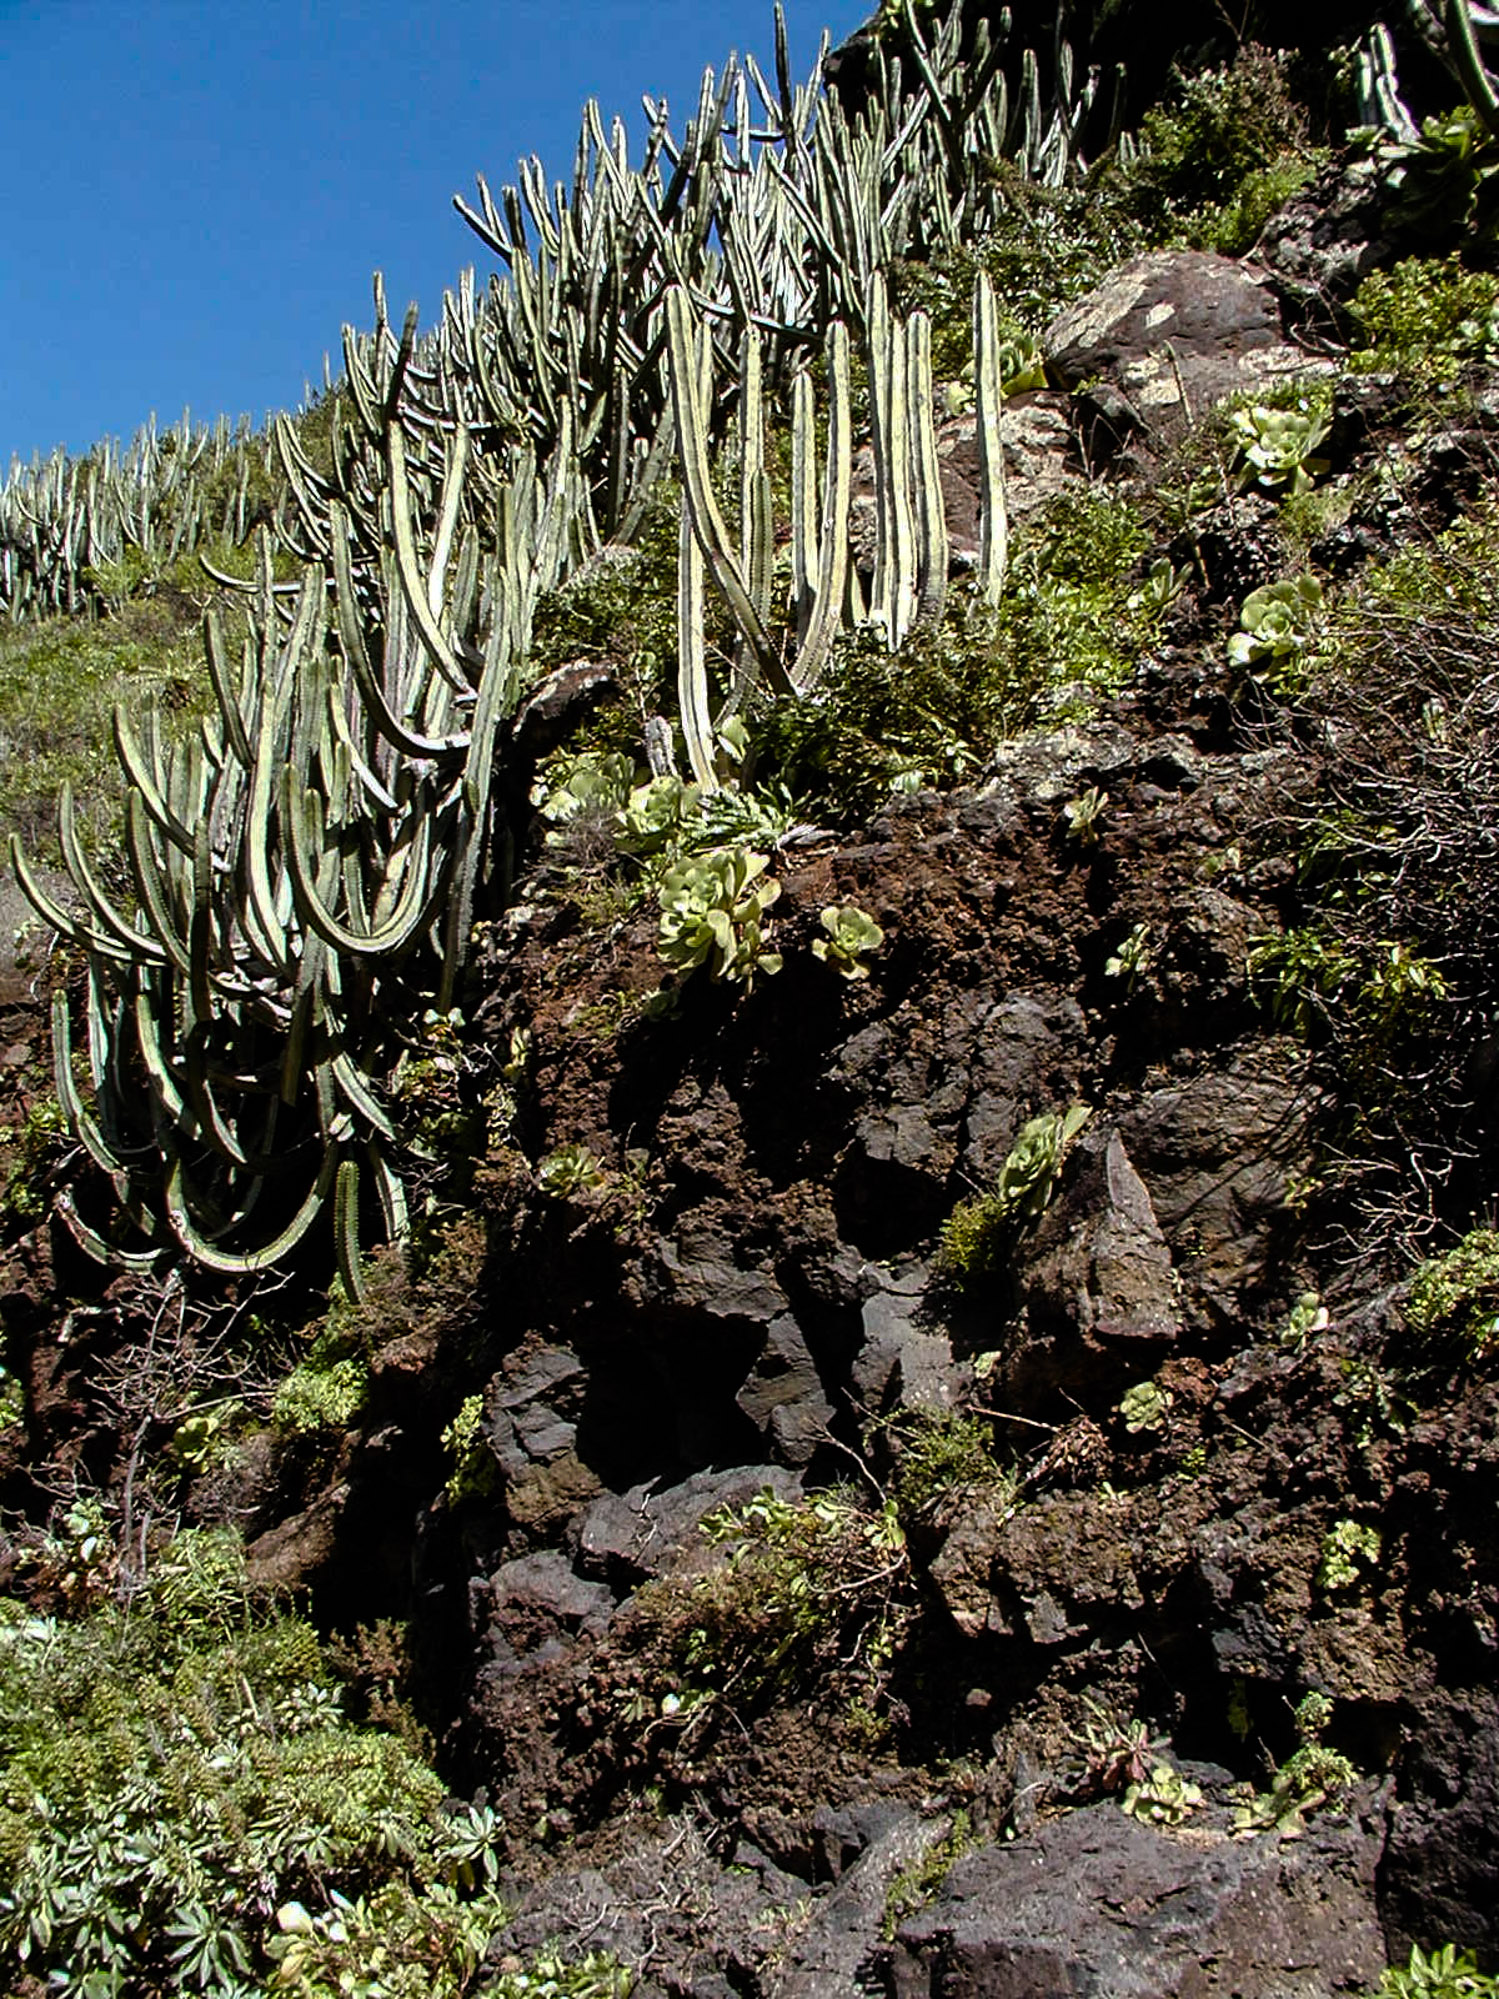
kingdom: Plantae
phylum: Tracheophyta
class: Magnoliopsida
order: Malpighiales
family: Euphorbiaceae
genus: Euphorbia
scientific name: Euphorbia canariensis
